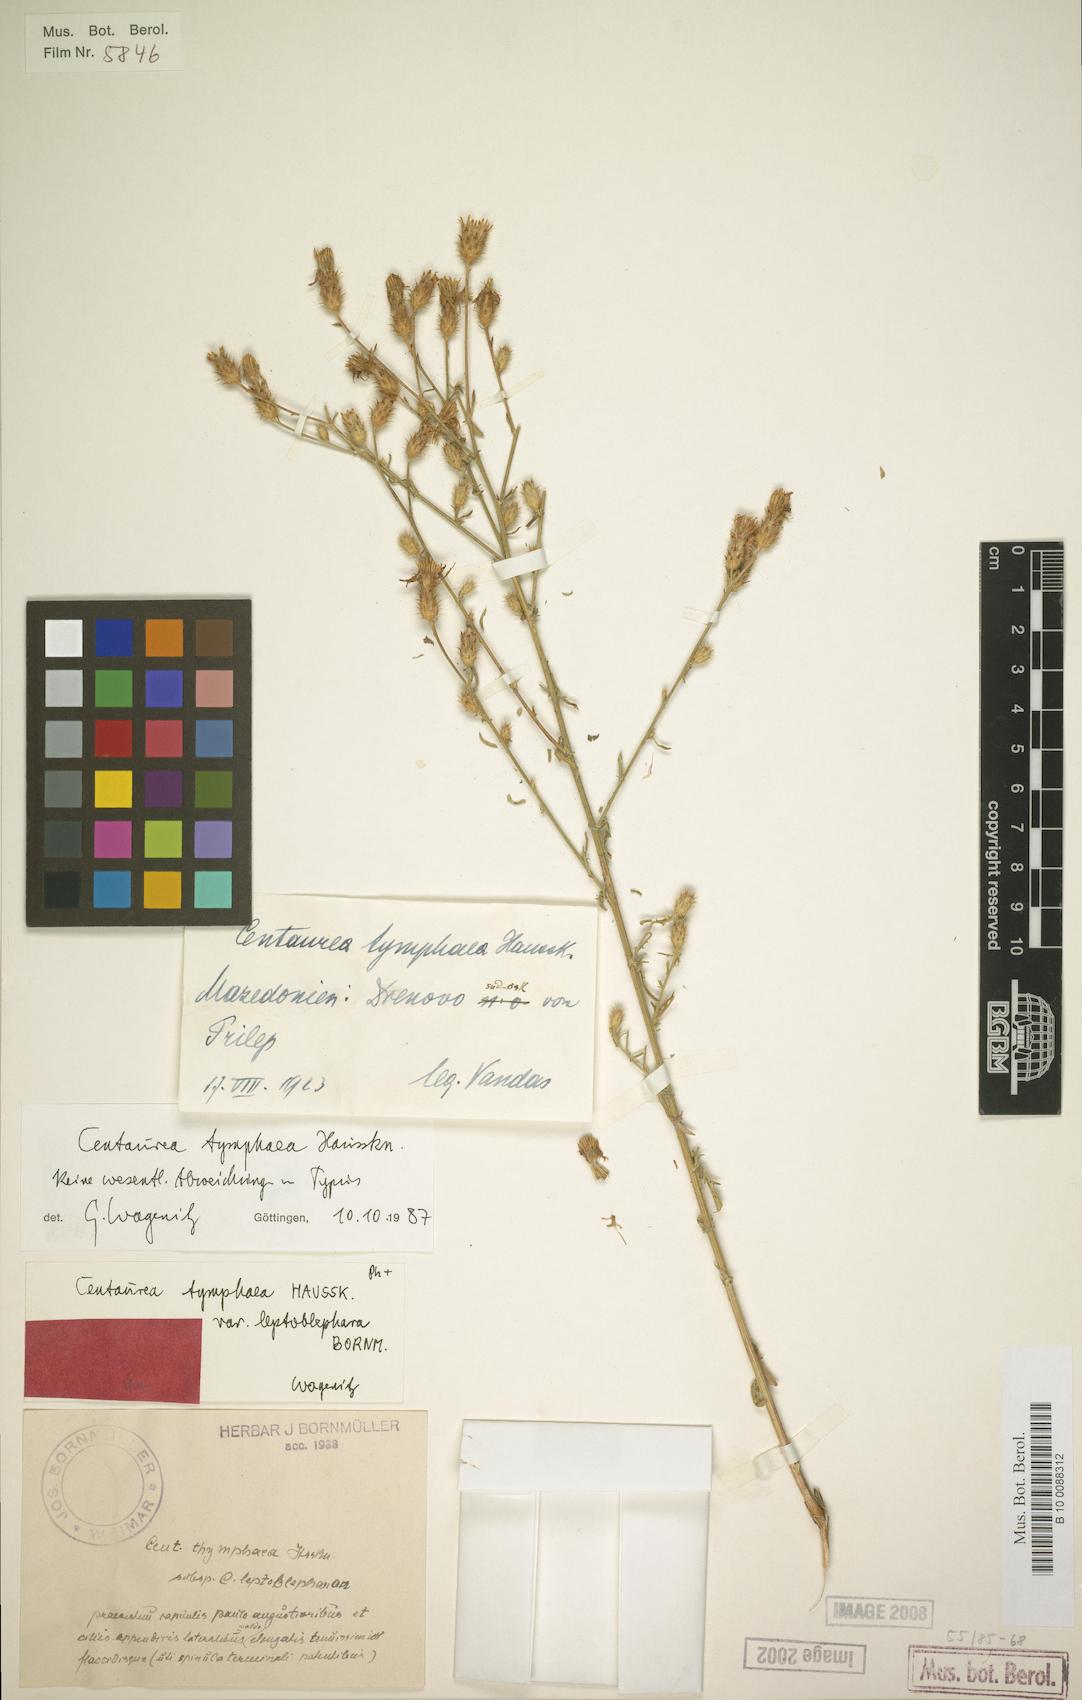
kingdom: Plantae
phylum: Tracheophyta
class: Magnoliopsida
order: Asterales
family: Asteraceae
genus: Centaurea
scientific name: Centaurea tymphaea
